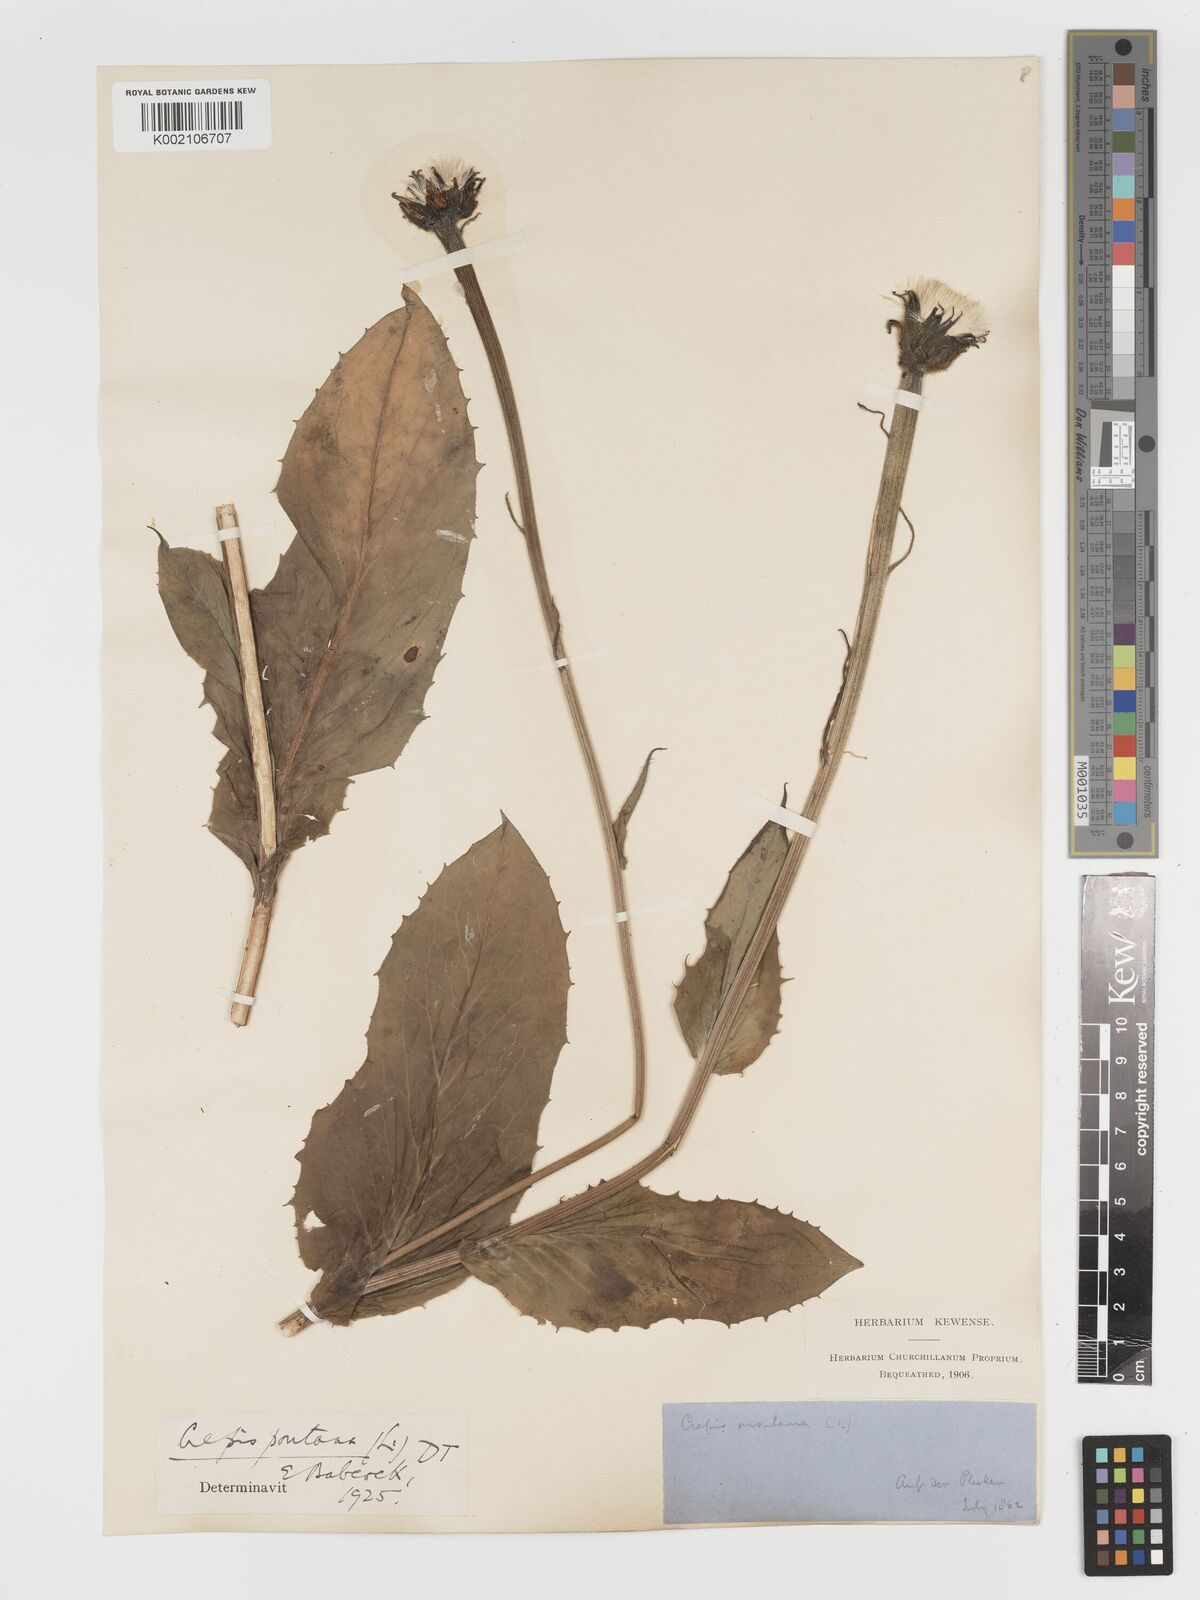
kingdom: Plantae
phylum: Tracheophyta
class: Magnoliopsida
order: Asterales
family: Asteraceae
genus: Crepis
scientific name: Crepis pontana
